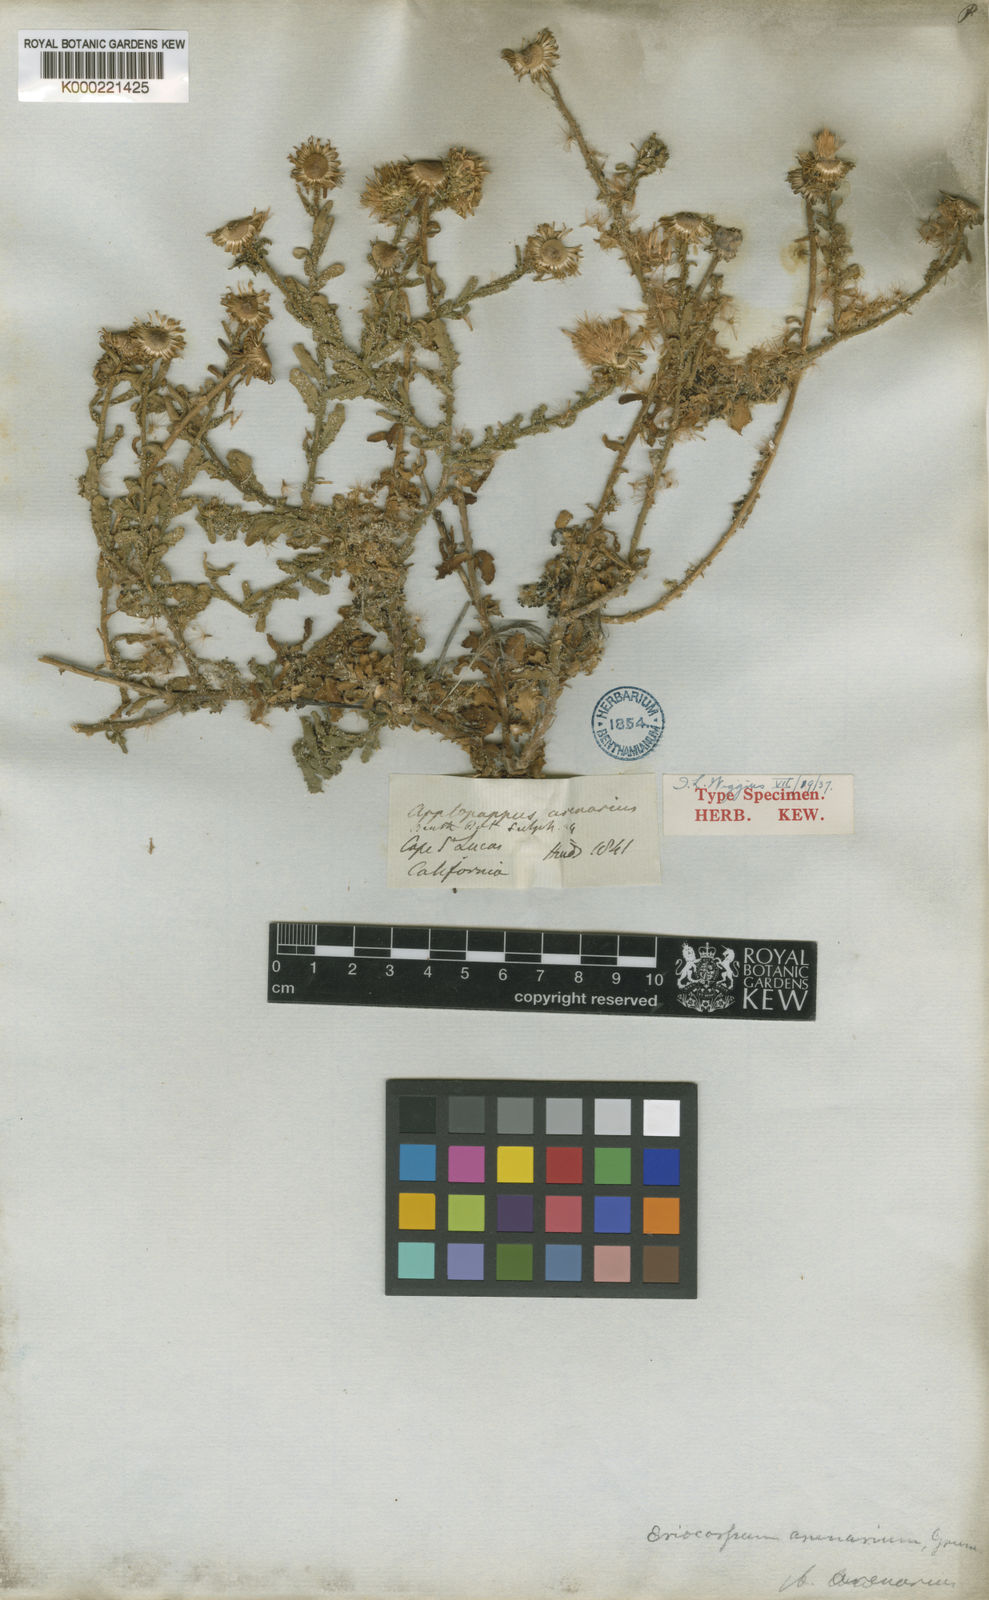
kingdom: Plantae
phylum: Tracheophyta
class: Magnoliopsida
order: Asterales
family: Asteraceae
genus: Xanthisma
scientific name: Xanthisma arenarium
